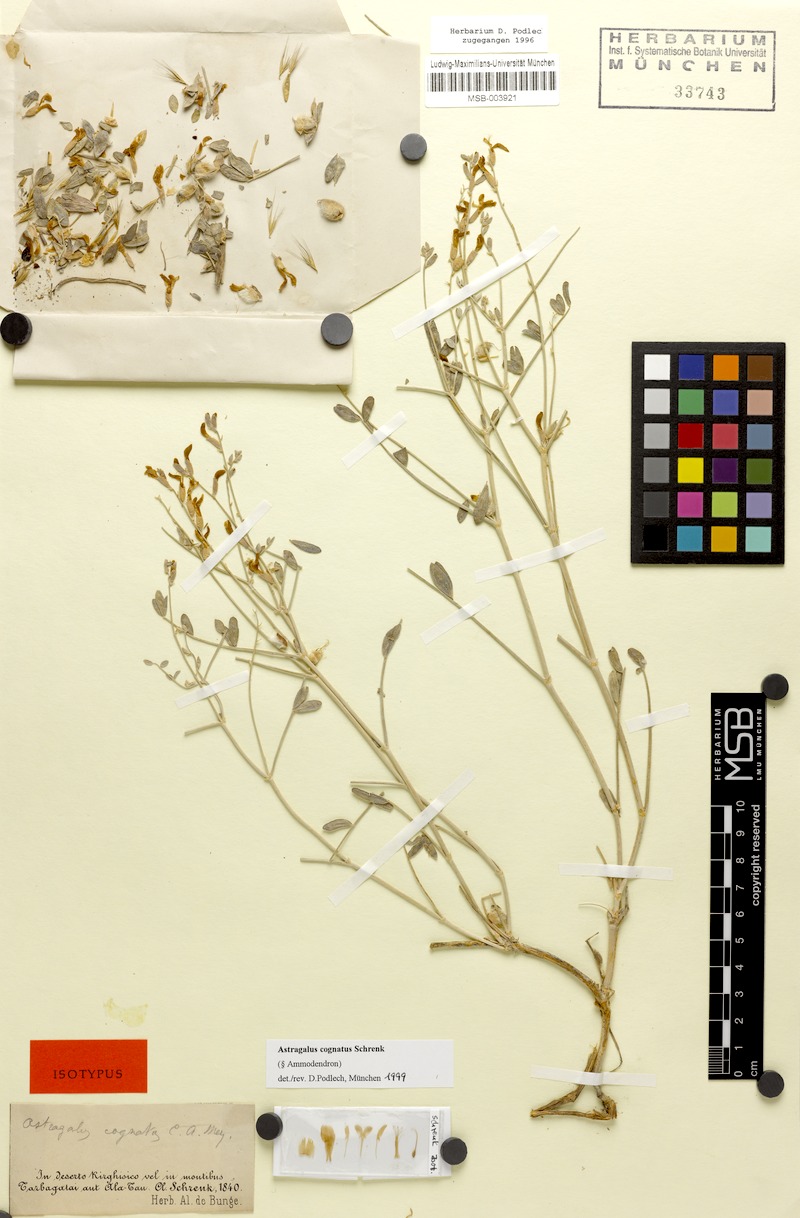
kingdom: Plantae
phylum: Tracheophyta
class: Magnoliopsida
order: Fabales
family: Fabaceae
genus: Astragalus
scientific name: Astragalus cognatus
